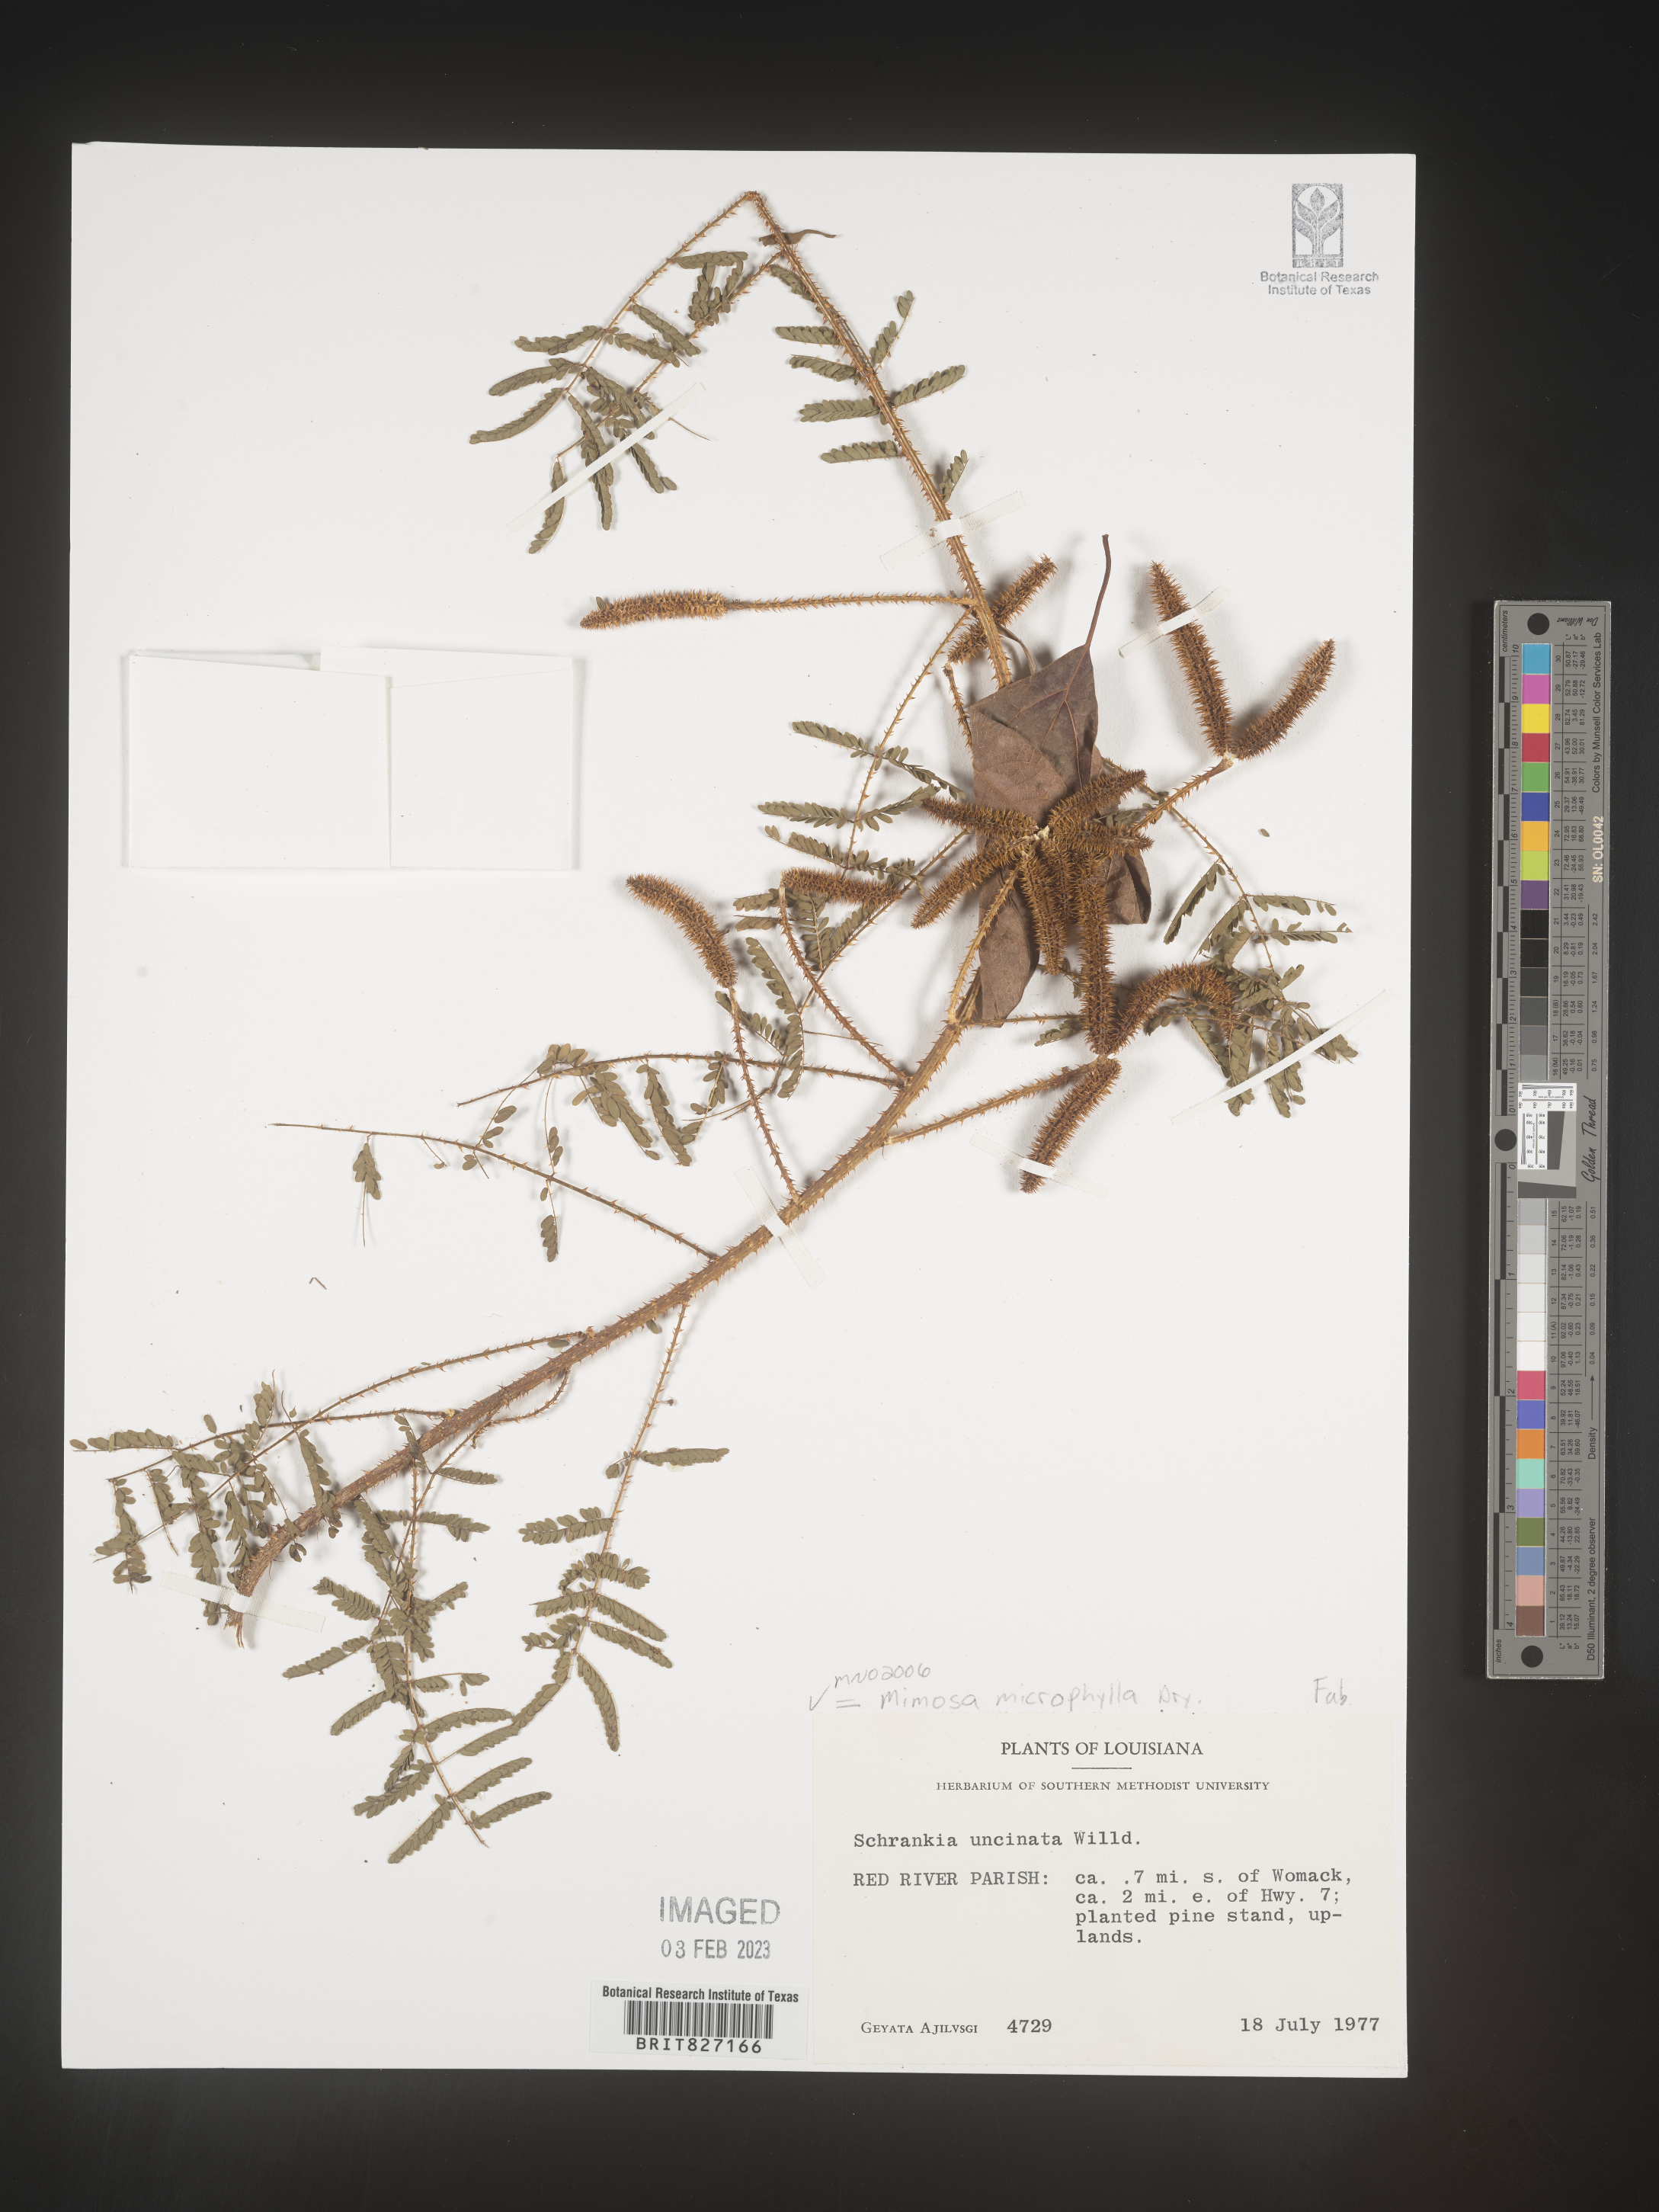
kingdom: Plantae
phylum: Tracheophyta
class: Magnoliopsida
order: Fabales
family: Fabaceae
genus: Mimosa
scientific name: Mimosa quadrivalvis
